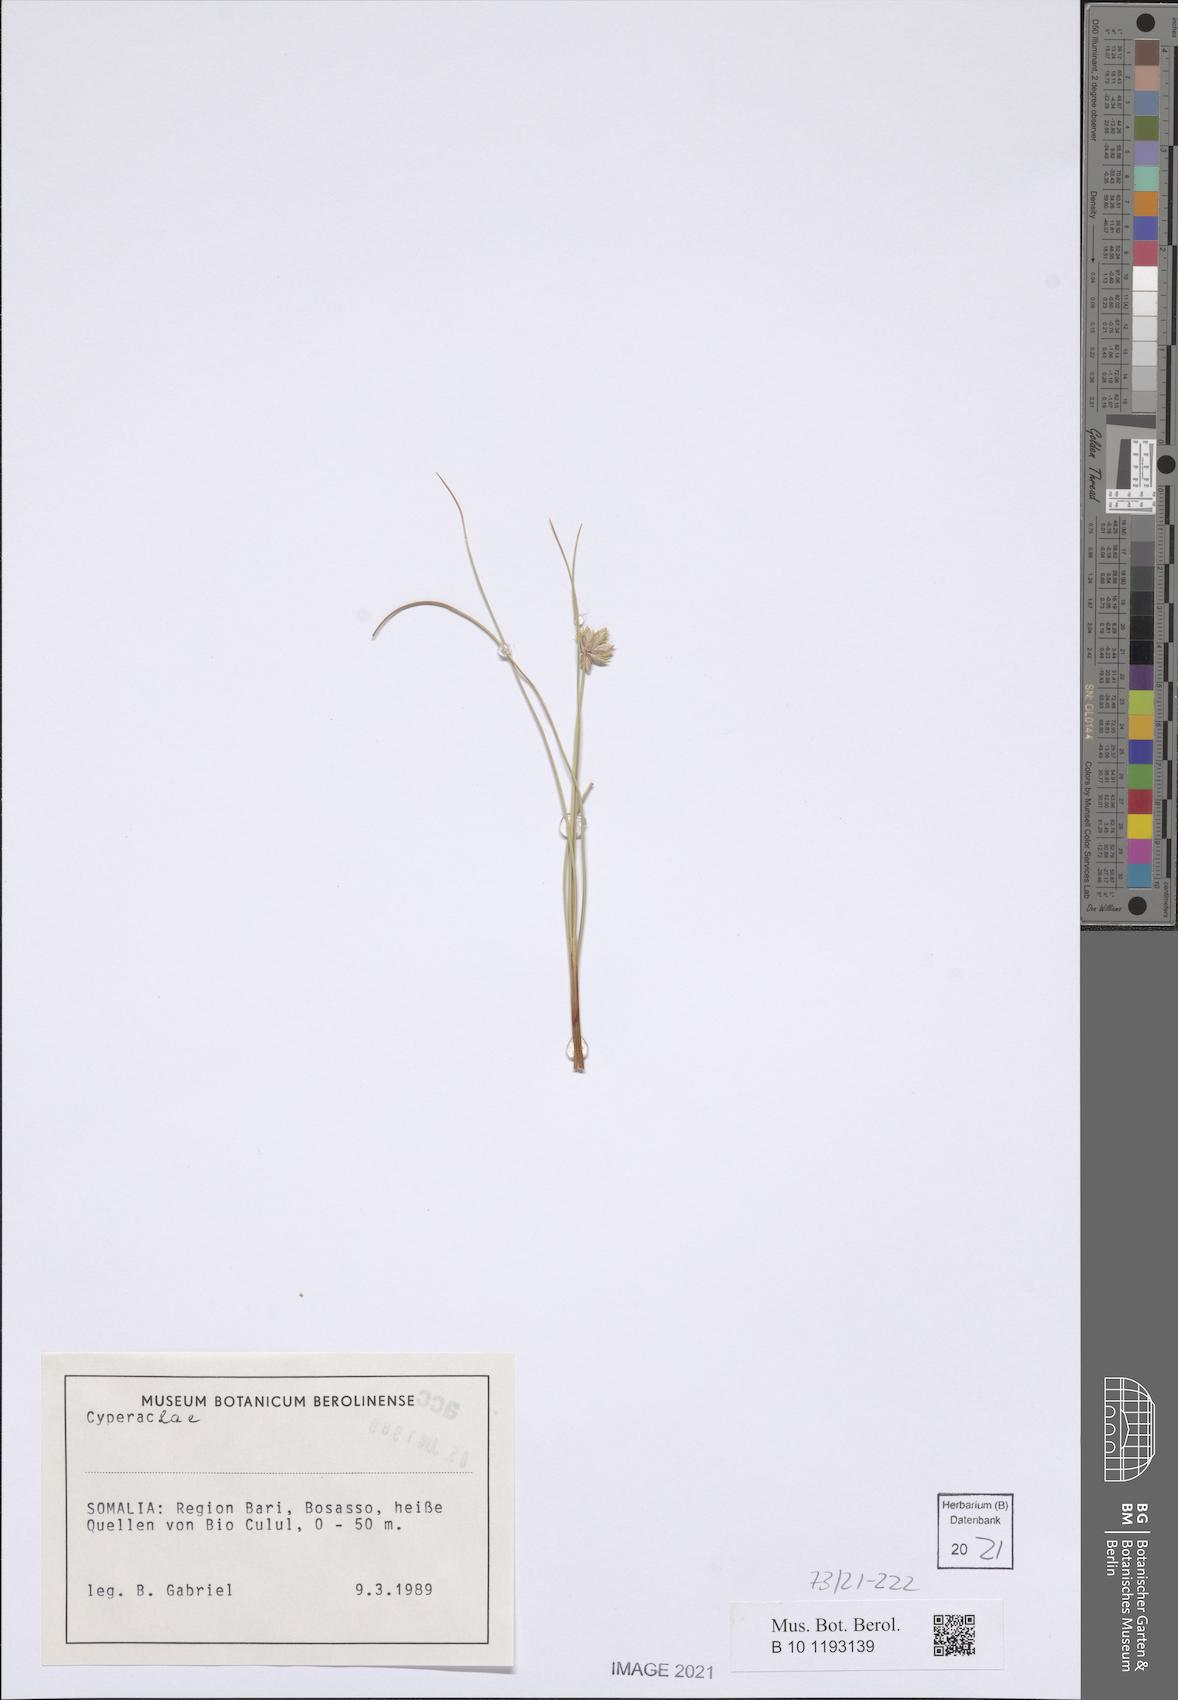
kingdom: Plantae
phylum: Tracheophyta
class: Liliopsida
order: Poales
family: Cyperaceae
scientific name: Cyperaceae
